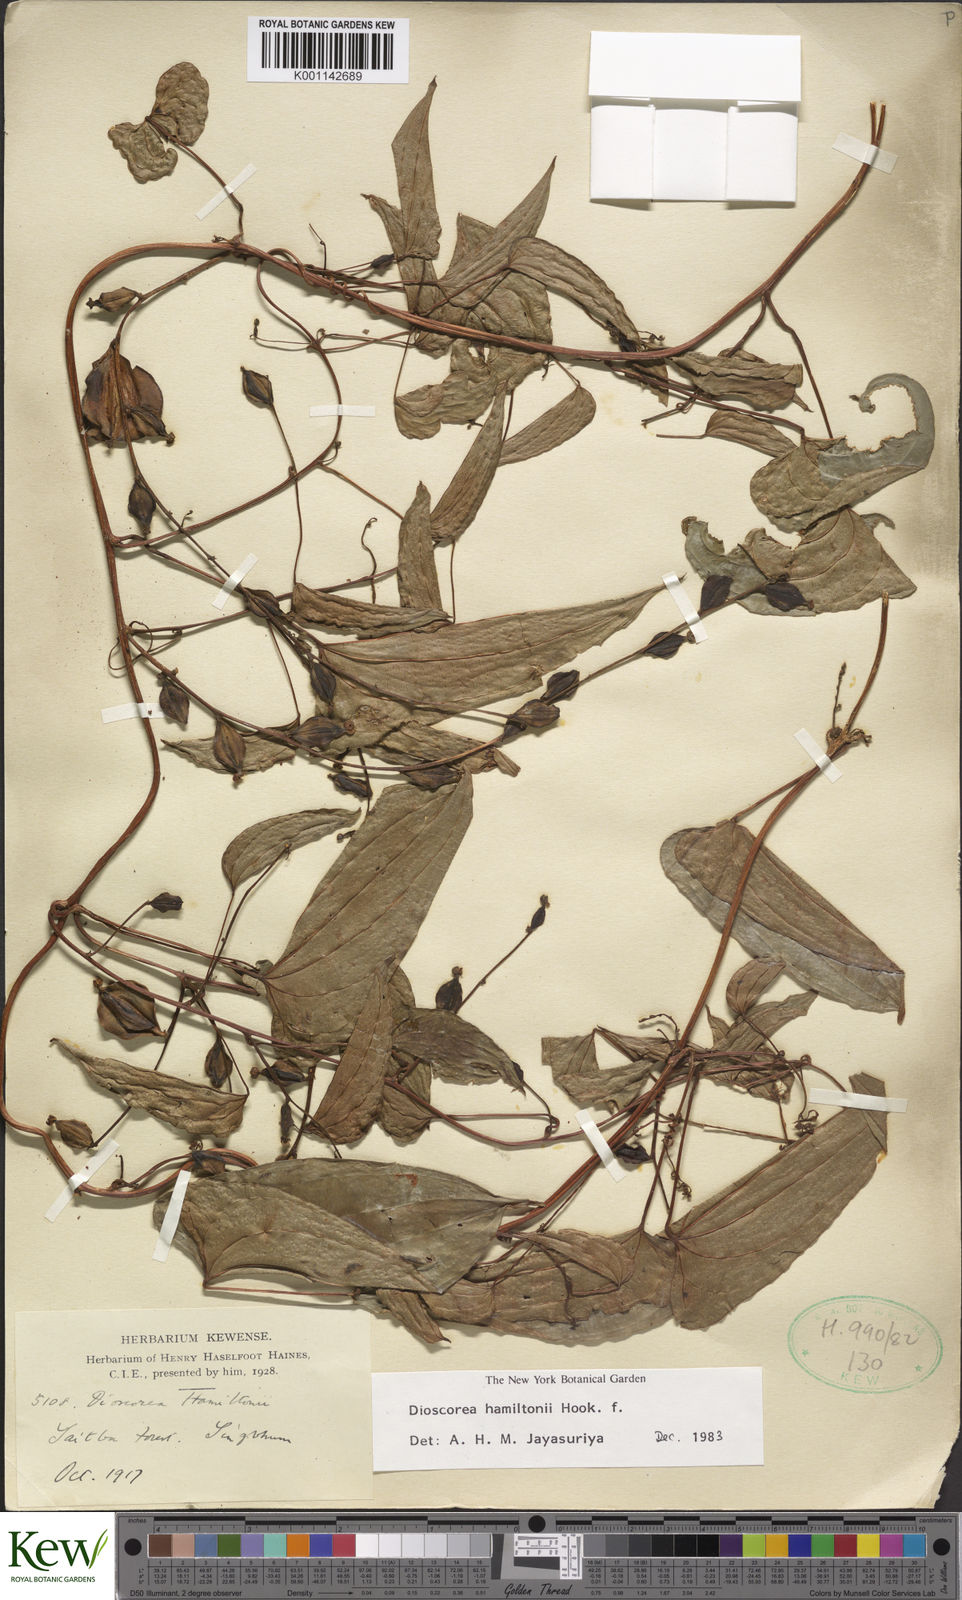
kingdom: Plantae
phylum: Tracheophyta
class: Liliopsida
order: Dioscoreales
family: Dioscoreaceae
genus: Dioscorea
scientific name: Dioscorea hamiltonii
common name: Mountain yam
